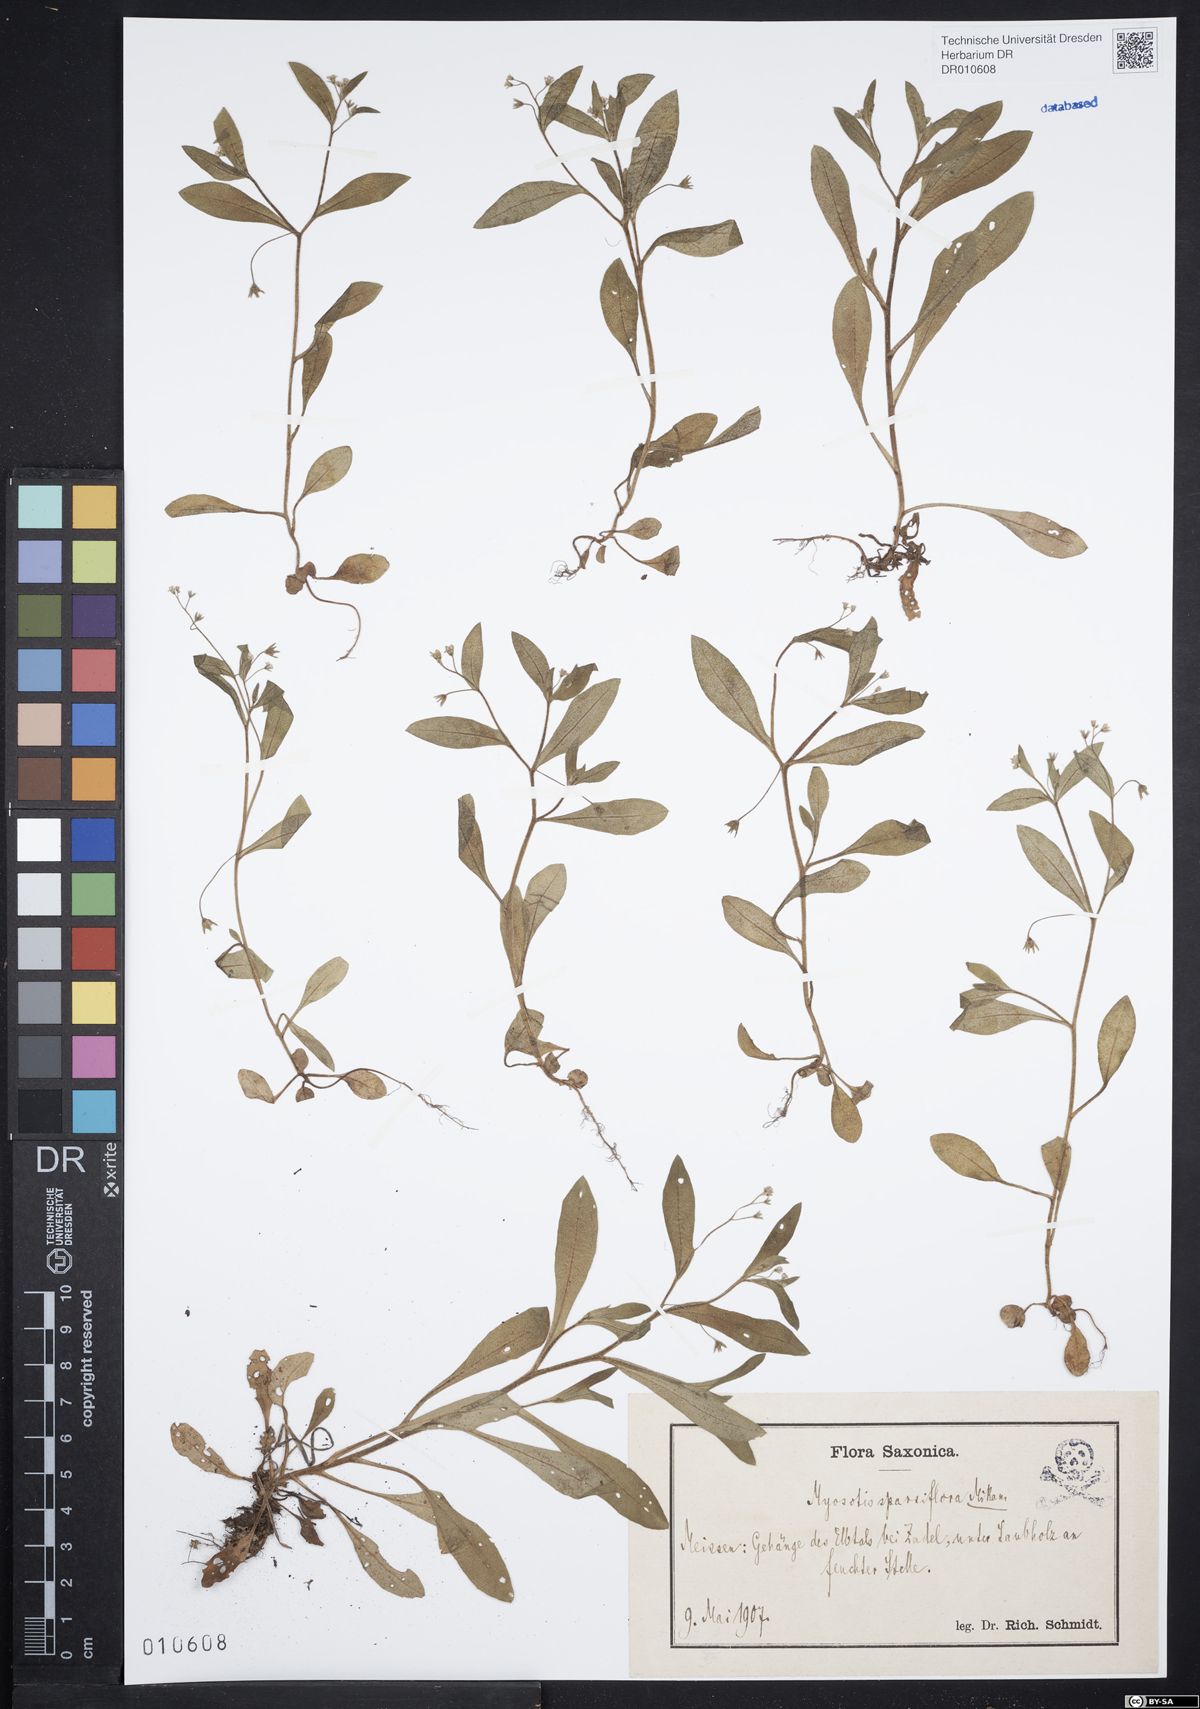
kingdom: Plantae
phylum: Tracheophyta
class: Magnoliopsida
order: Boraginales
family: Boraginaceae
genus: Myosotis
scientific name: Myosotis sparsiflora
